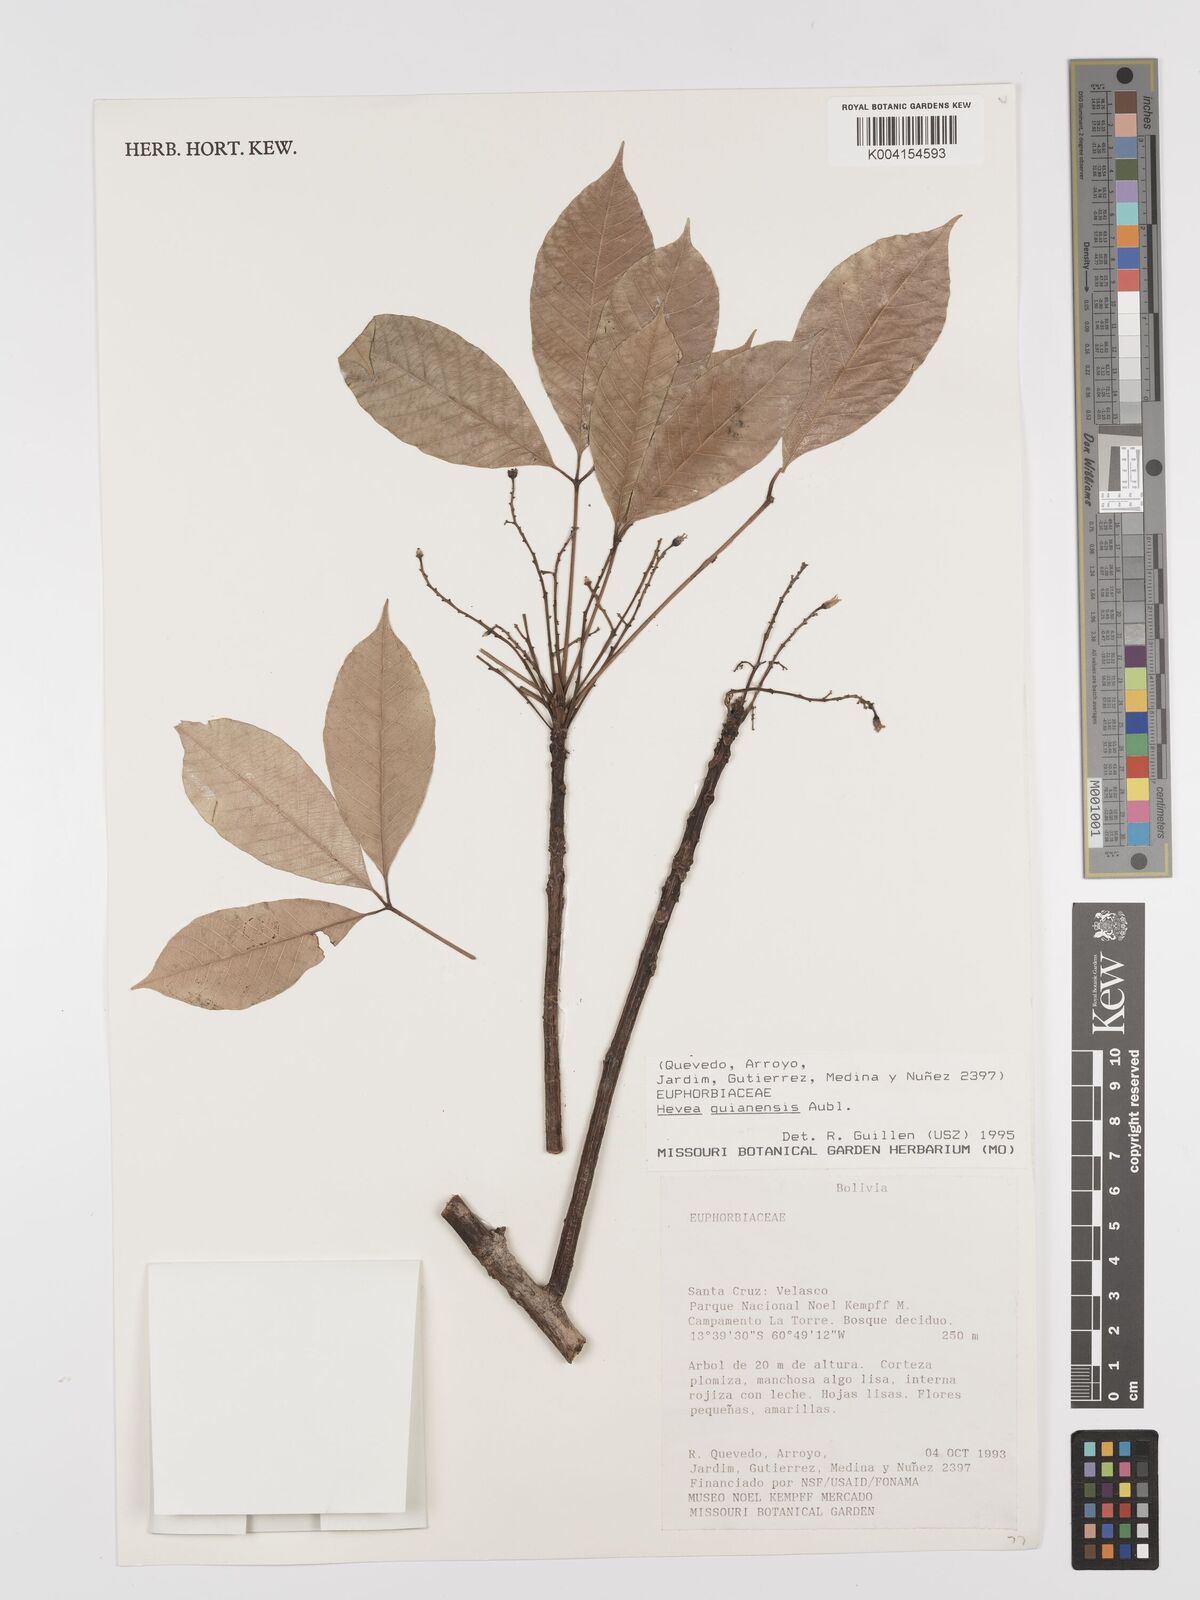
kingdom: Plantae
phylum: Tracheophyta
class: Magnoliopsida
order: Malpighiales
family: Euphorbiaceae
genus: Hevea
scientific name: Hevea guianensis
